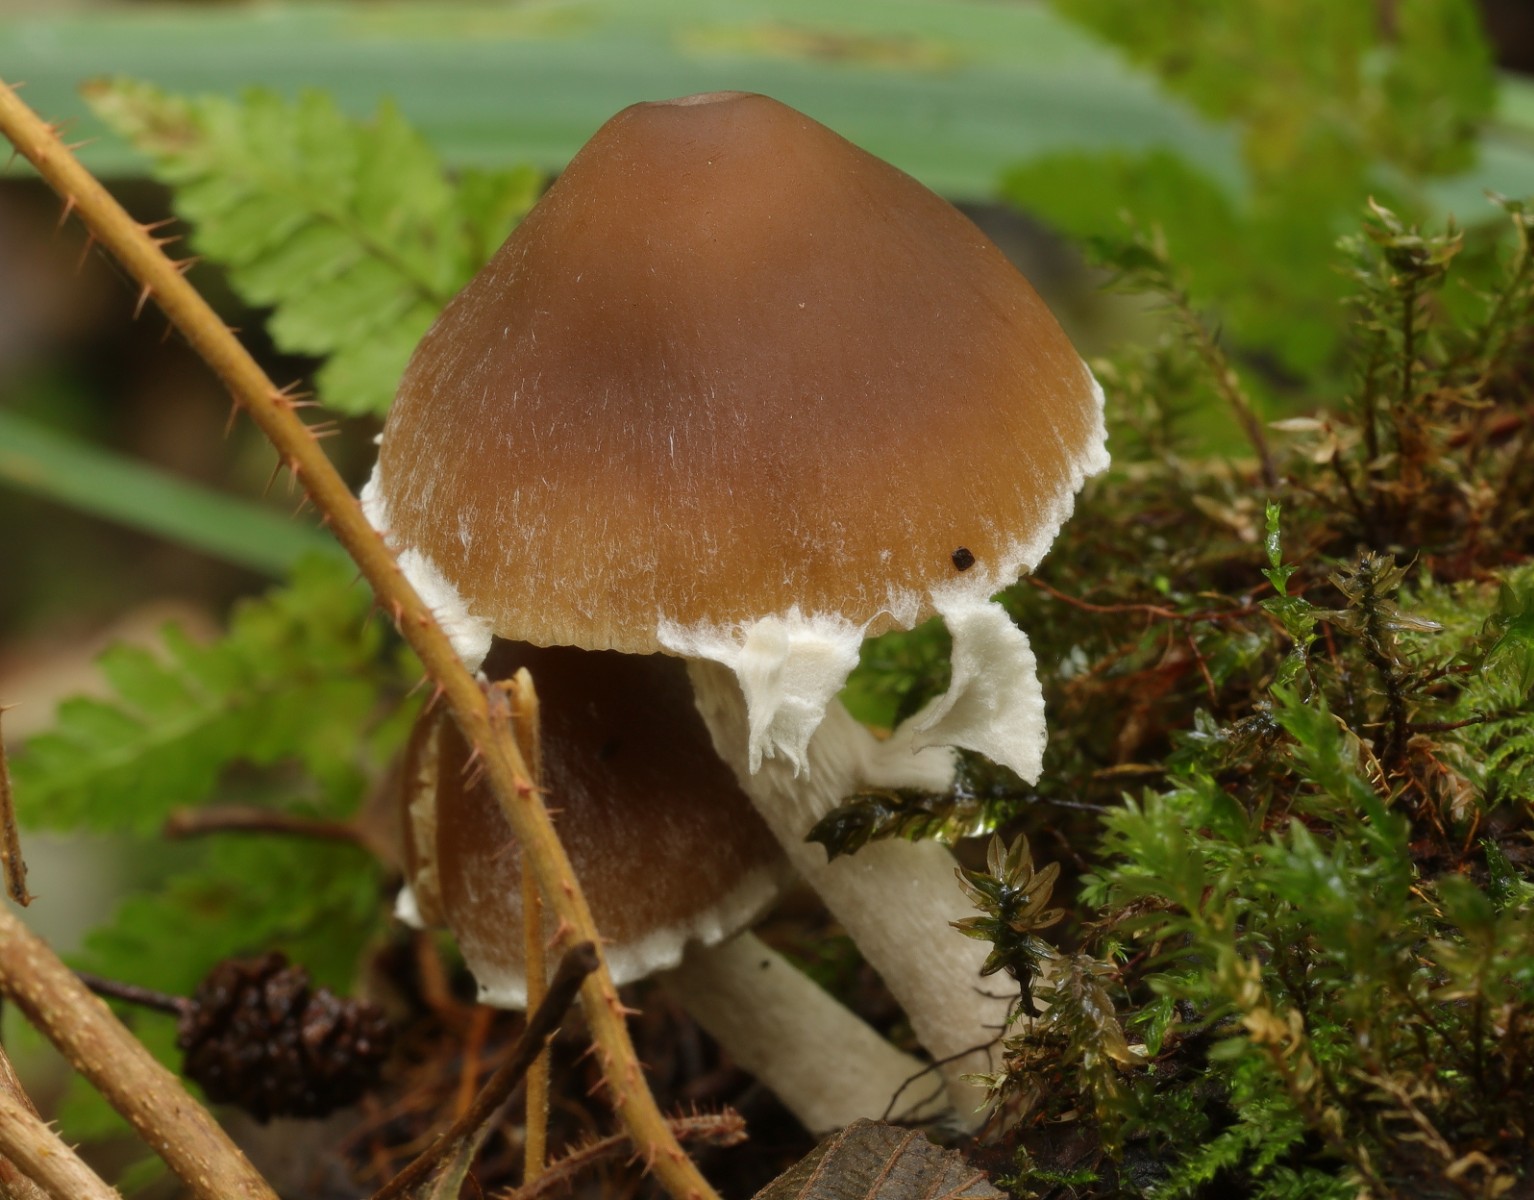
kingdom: Fungi
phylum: Basidiomycota
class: Agaricomycetes
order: Agaricales
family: Psathyrellaceae
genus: Psathyrella
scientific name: Psathyrella
